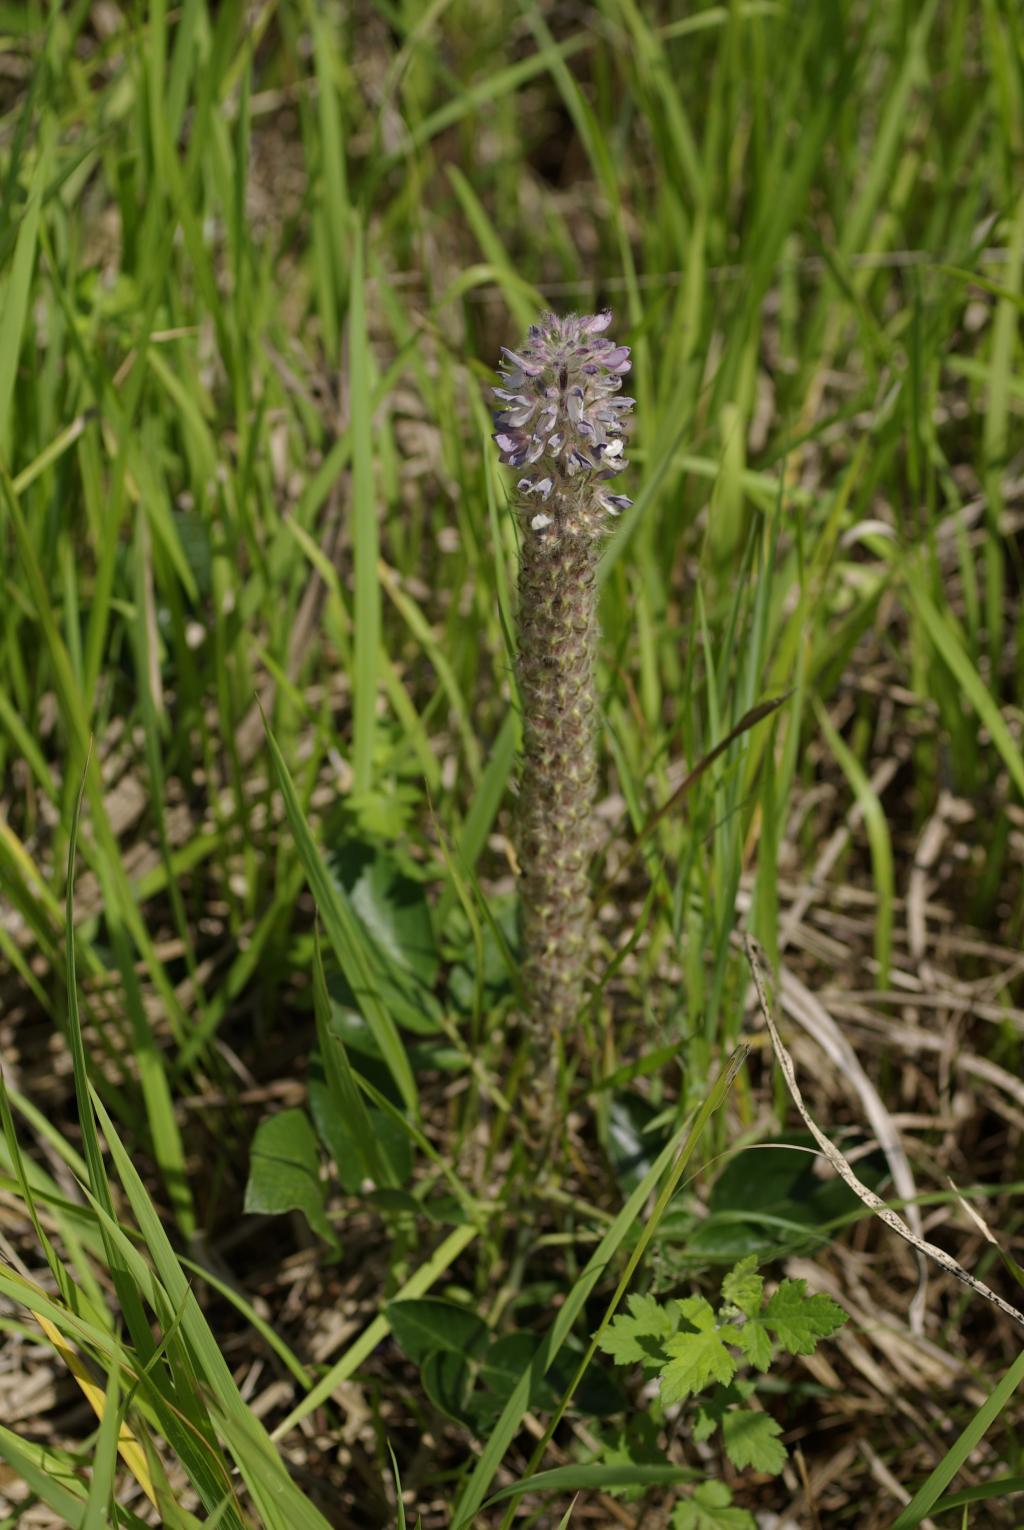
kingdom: Plantae
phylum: Tracheophyta
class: Magnoliopsida
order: Fabales
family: Fabaceae
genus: Uraria
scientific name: Uraria crinita
